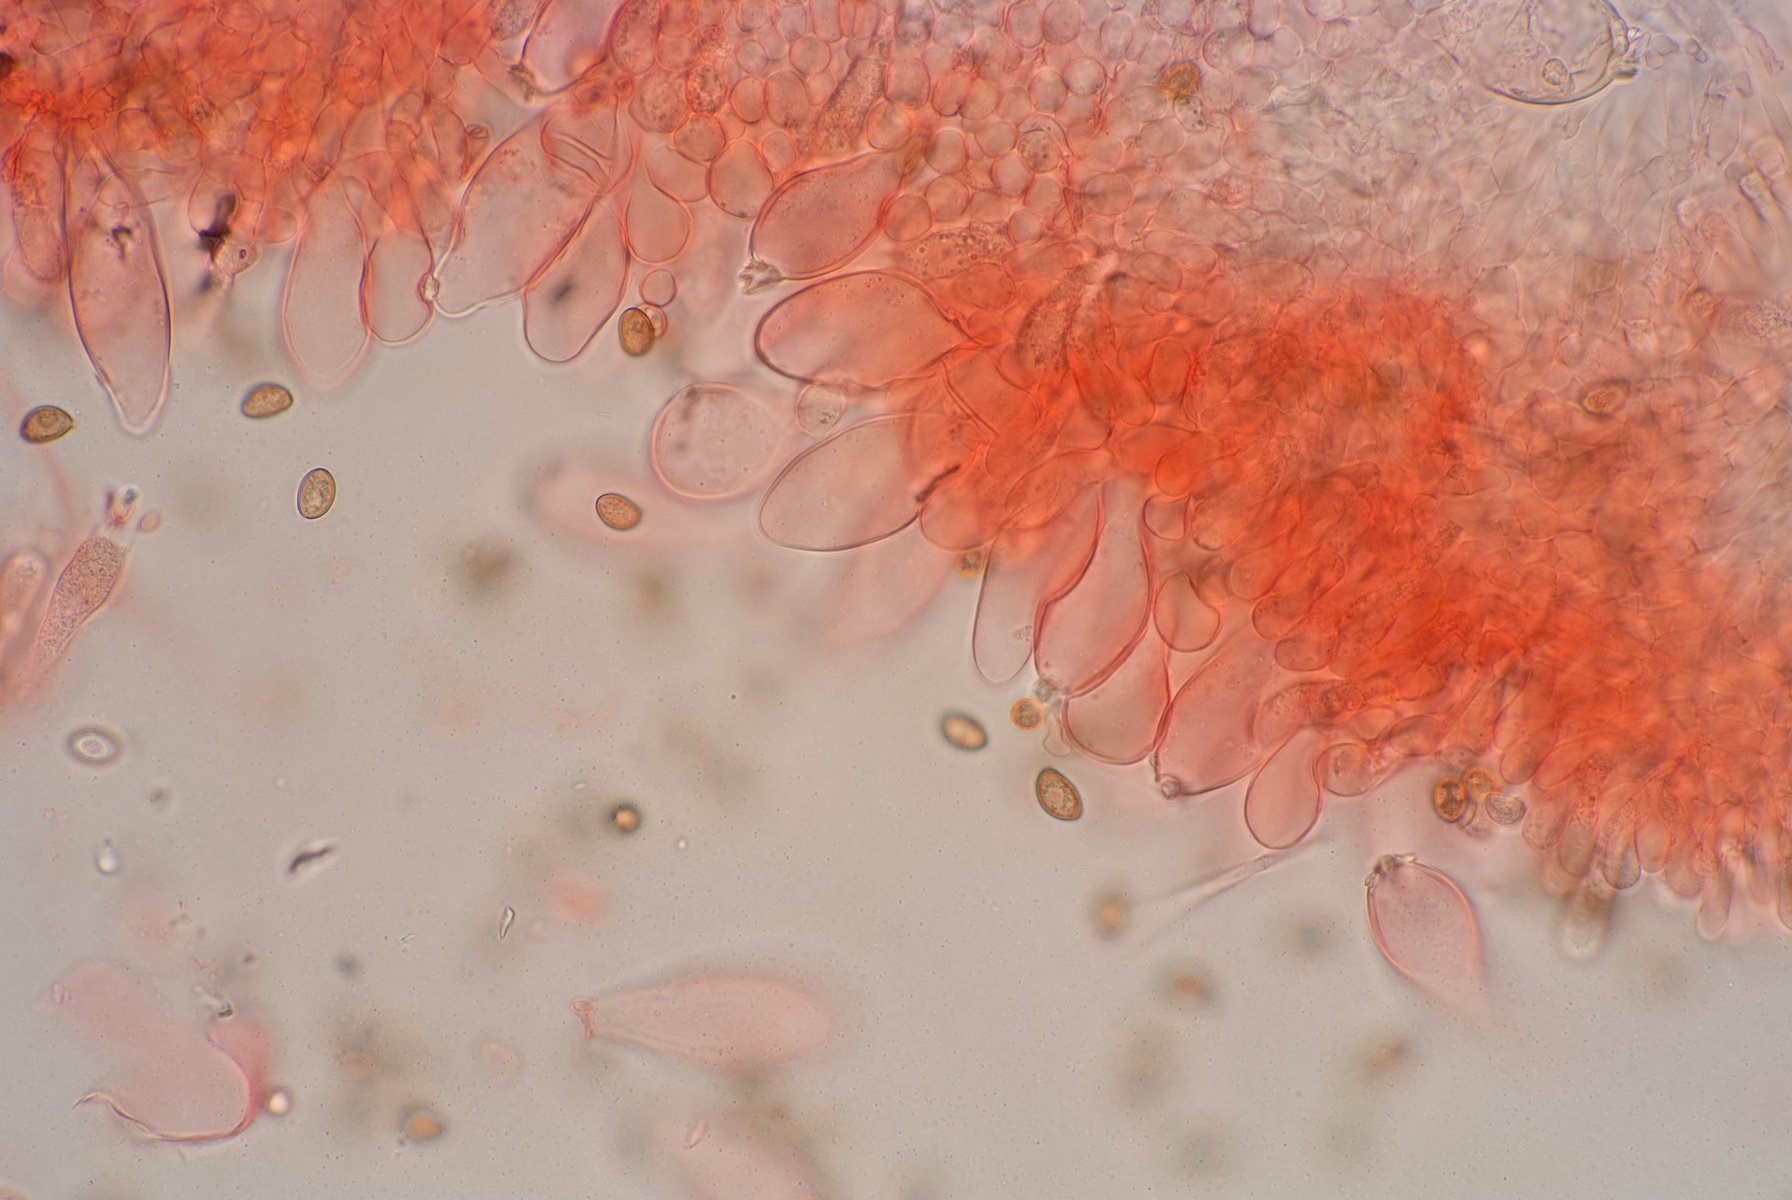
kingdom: Fungi
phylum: Basidiomycota
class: Agaricomycetes
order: Agaricales
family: Inocybaceae
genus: Inocybe
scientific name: Inocybe appendiculata
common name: tandet trævlhat
